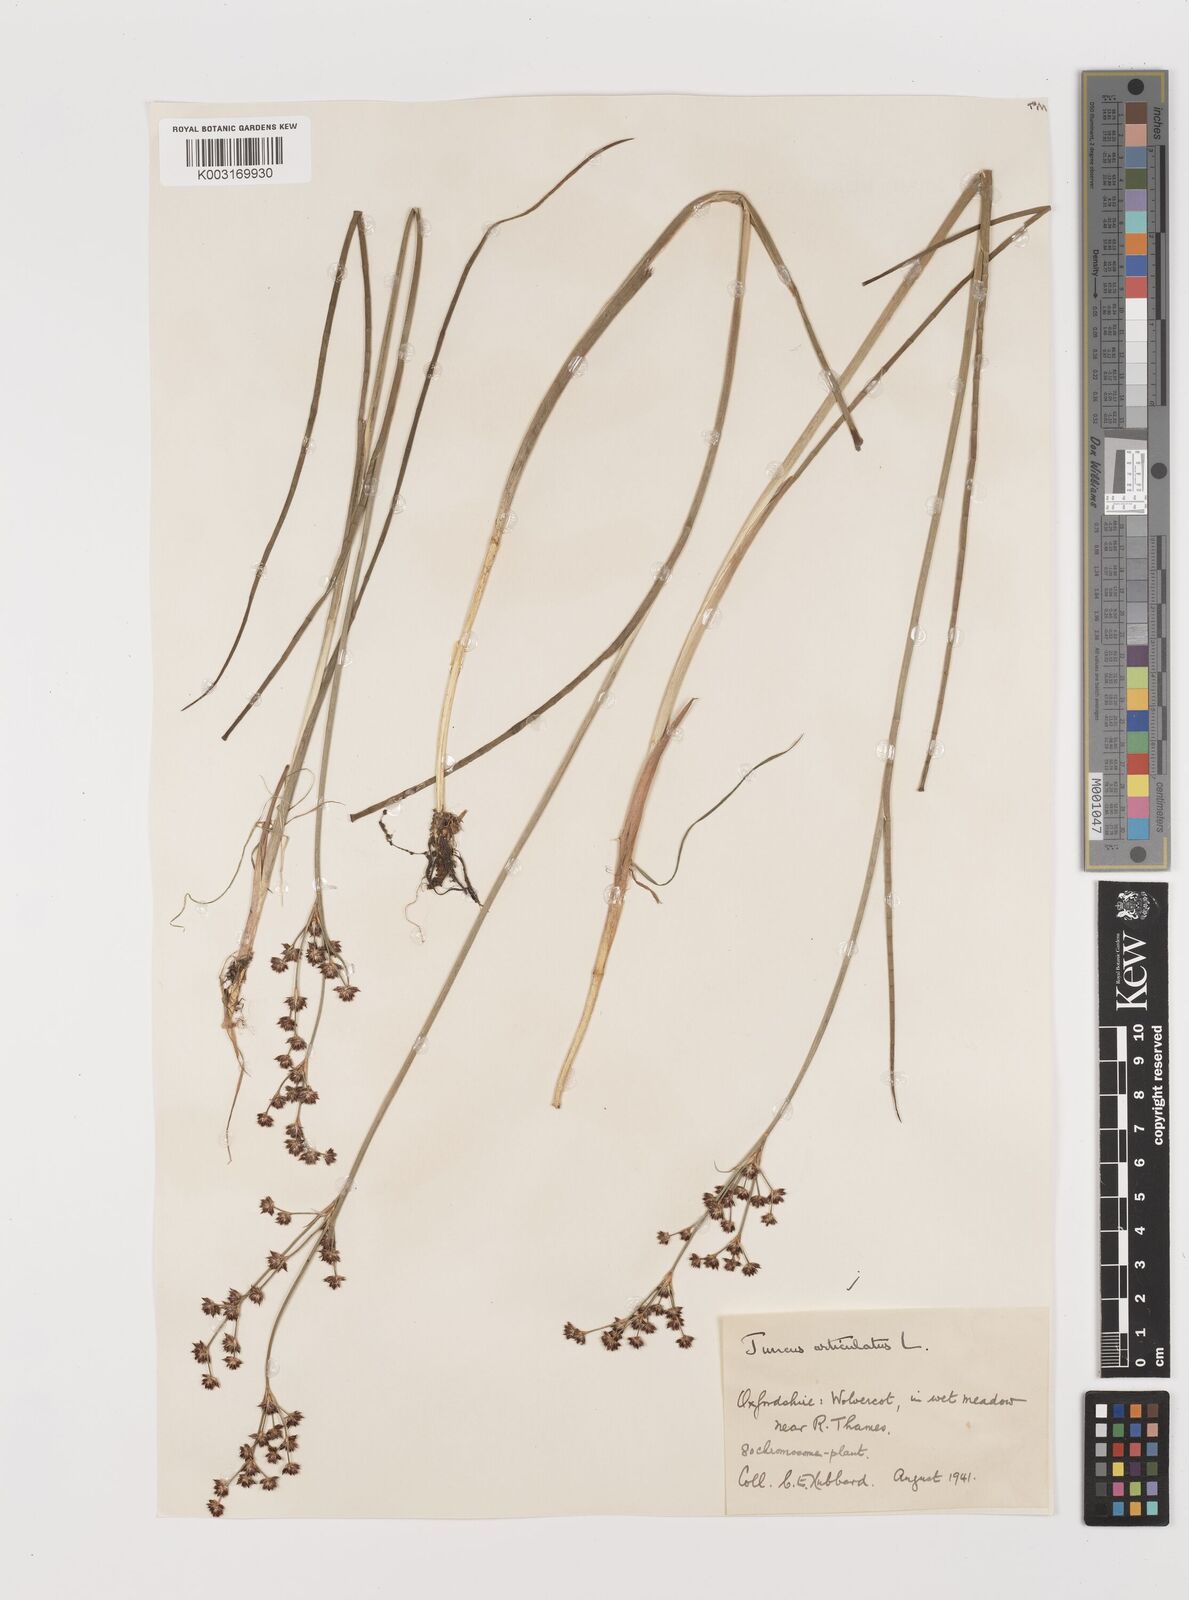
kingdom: Plantae
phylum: Tracheophyta
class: Liliopsida
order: Poales
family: Juncaceae
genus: Juncus
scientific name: Juncus articulatus
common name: Jointed rush
